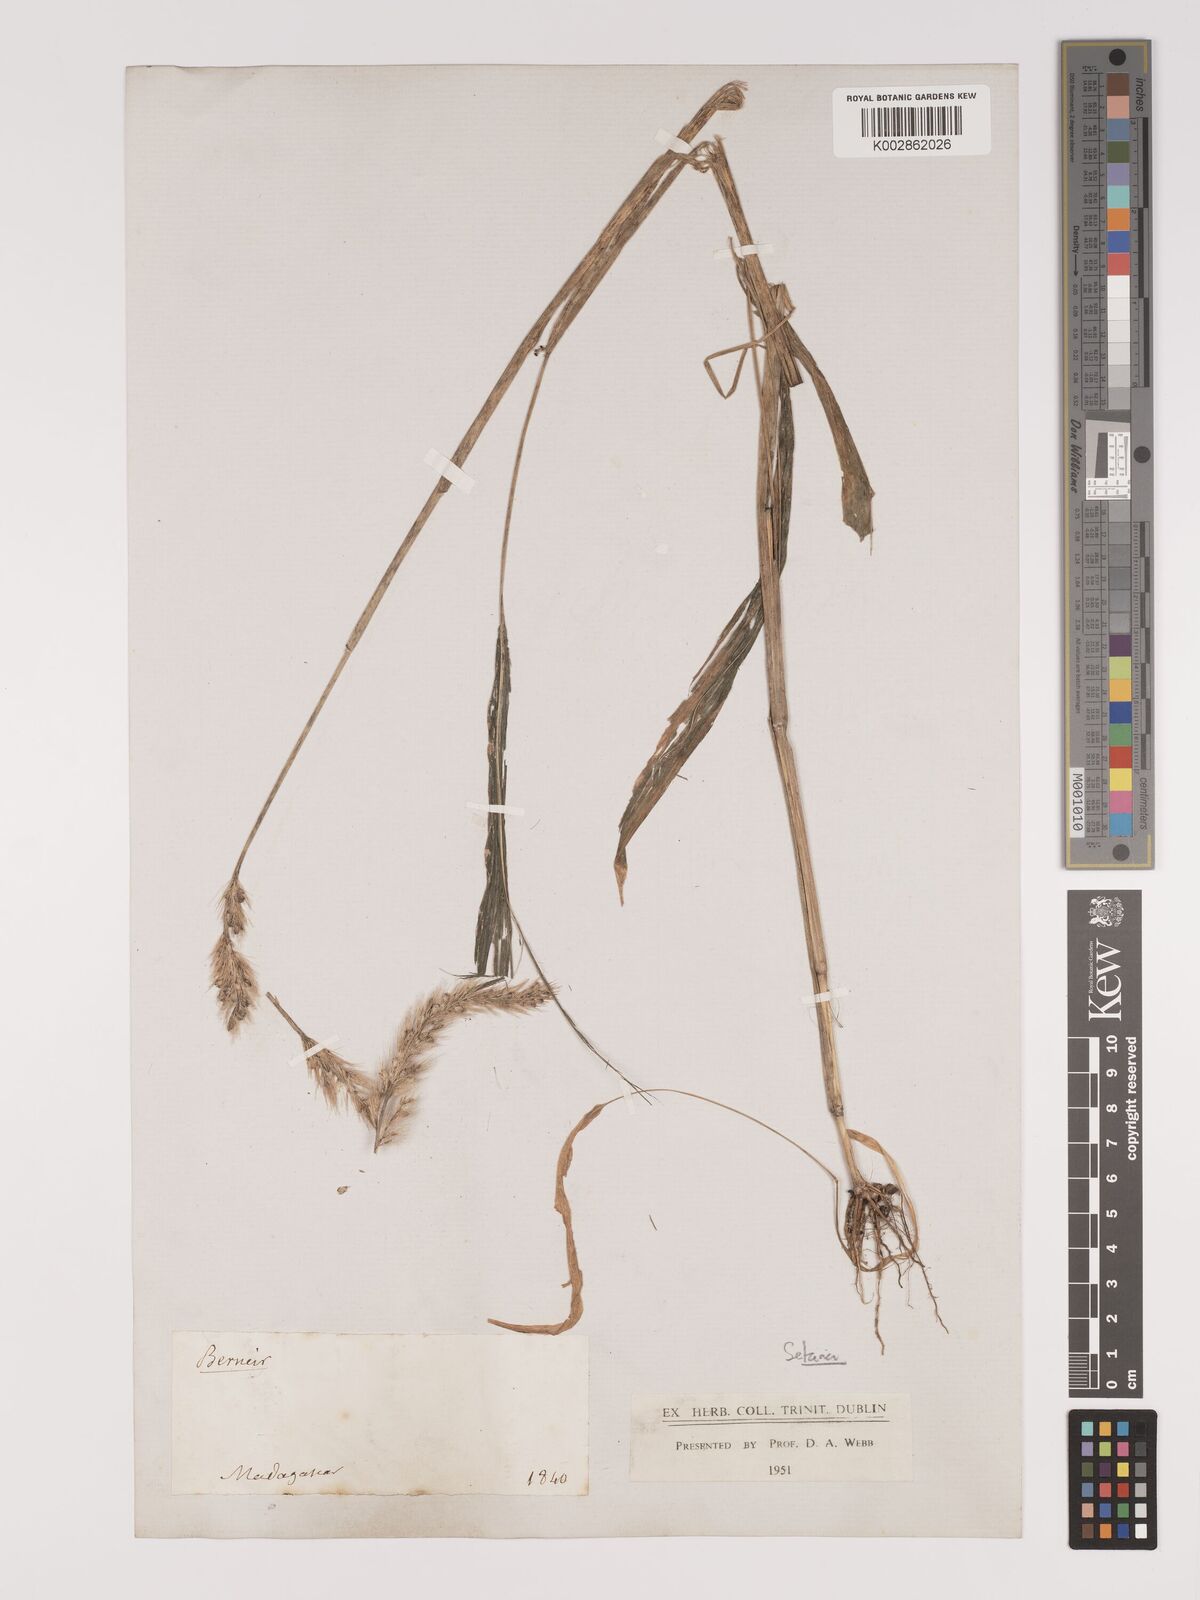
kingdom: Plantae
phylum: Tracheophyta
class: Liliopsida
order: Poales
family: Poaceae
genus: Setaria
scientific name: Setaria vatkeana
